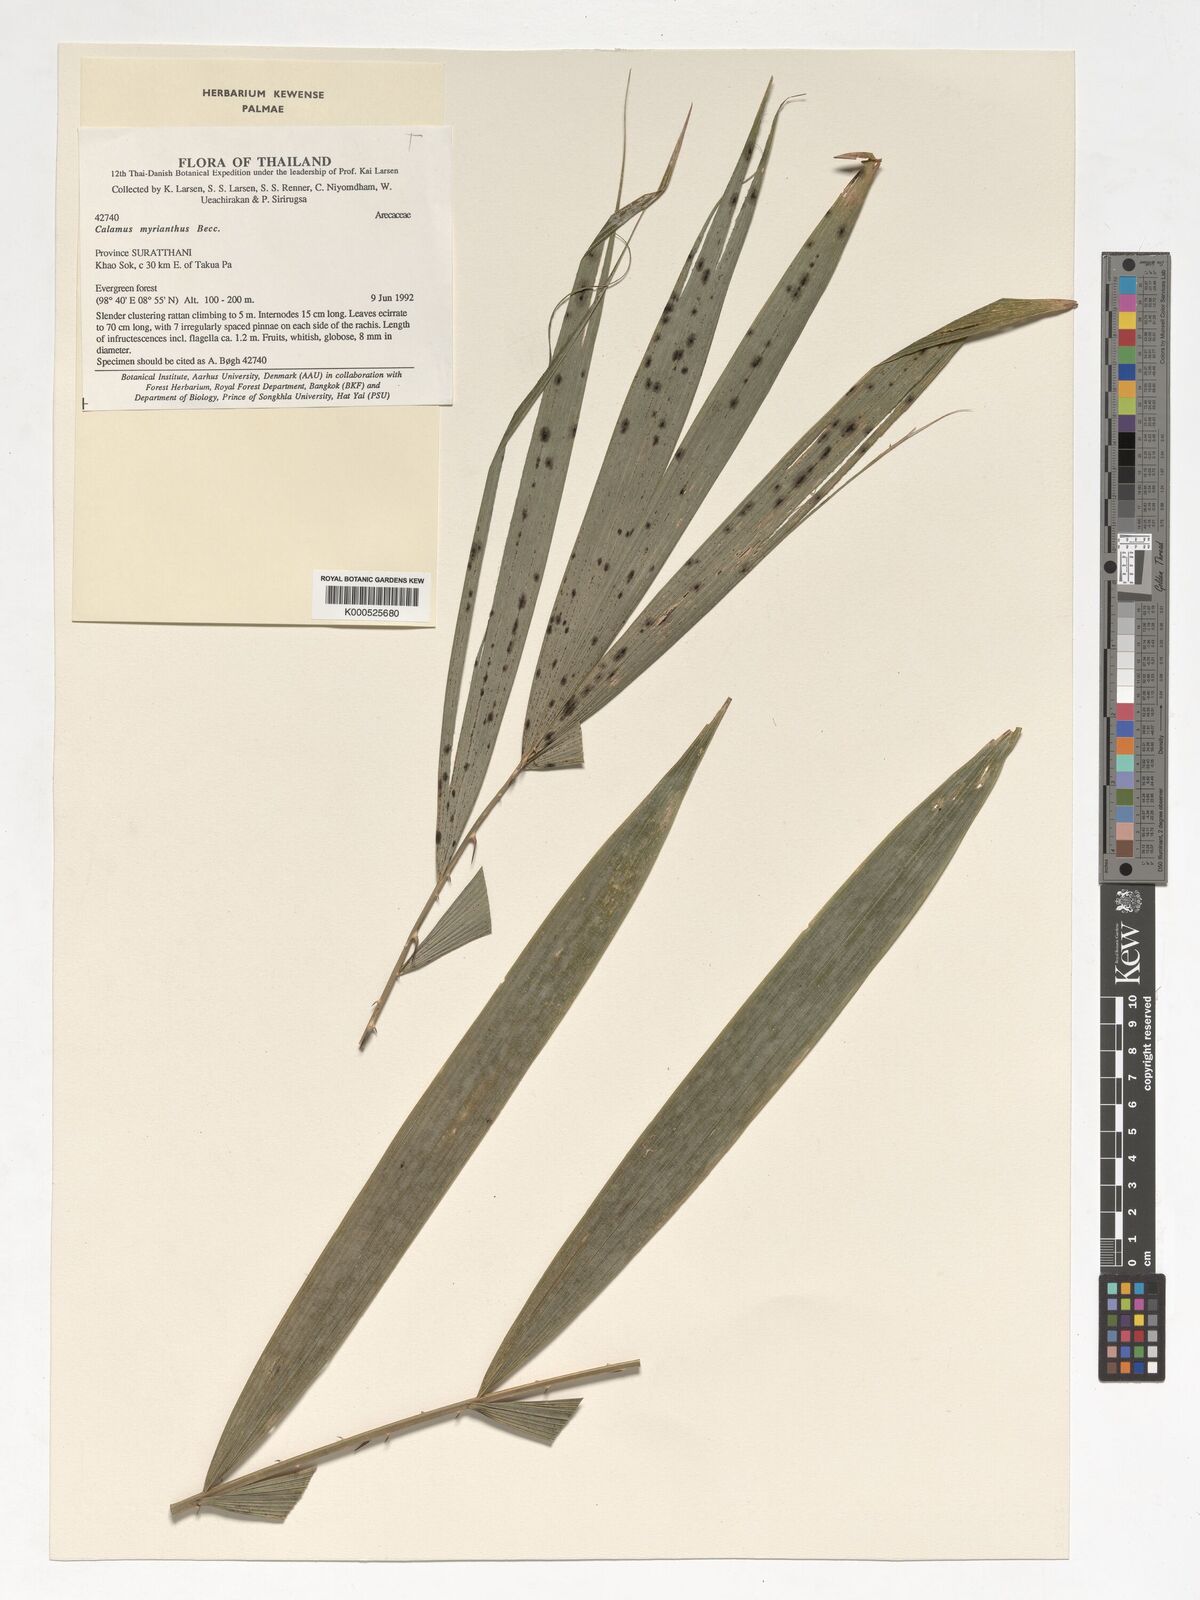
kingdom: Plantae
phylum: Tracheophyta
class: Liliopsida
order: Arecales
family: Arecaceae
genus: Calamus
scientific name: Calamus myrianthus
